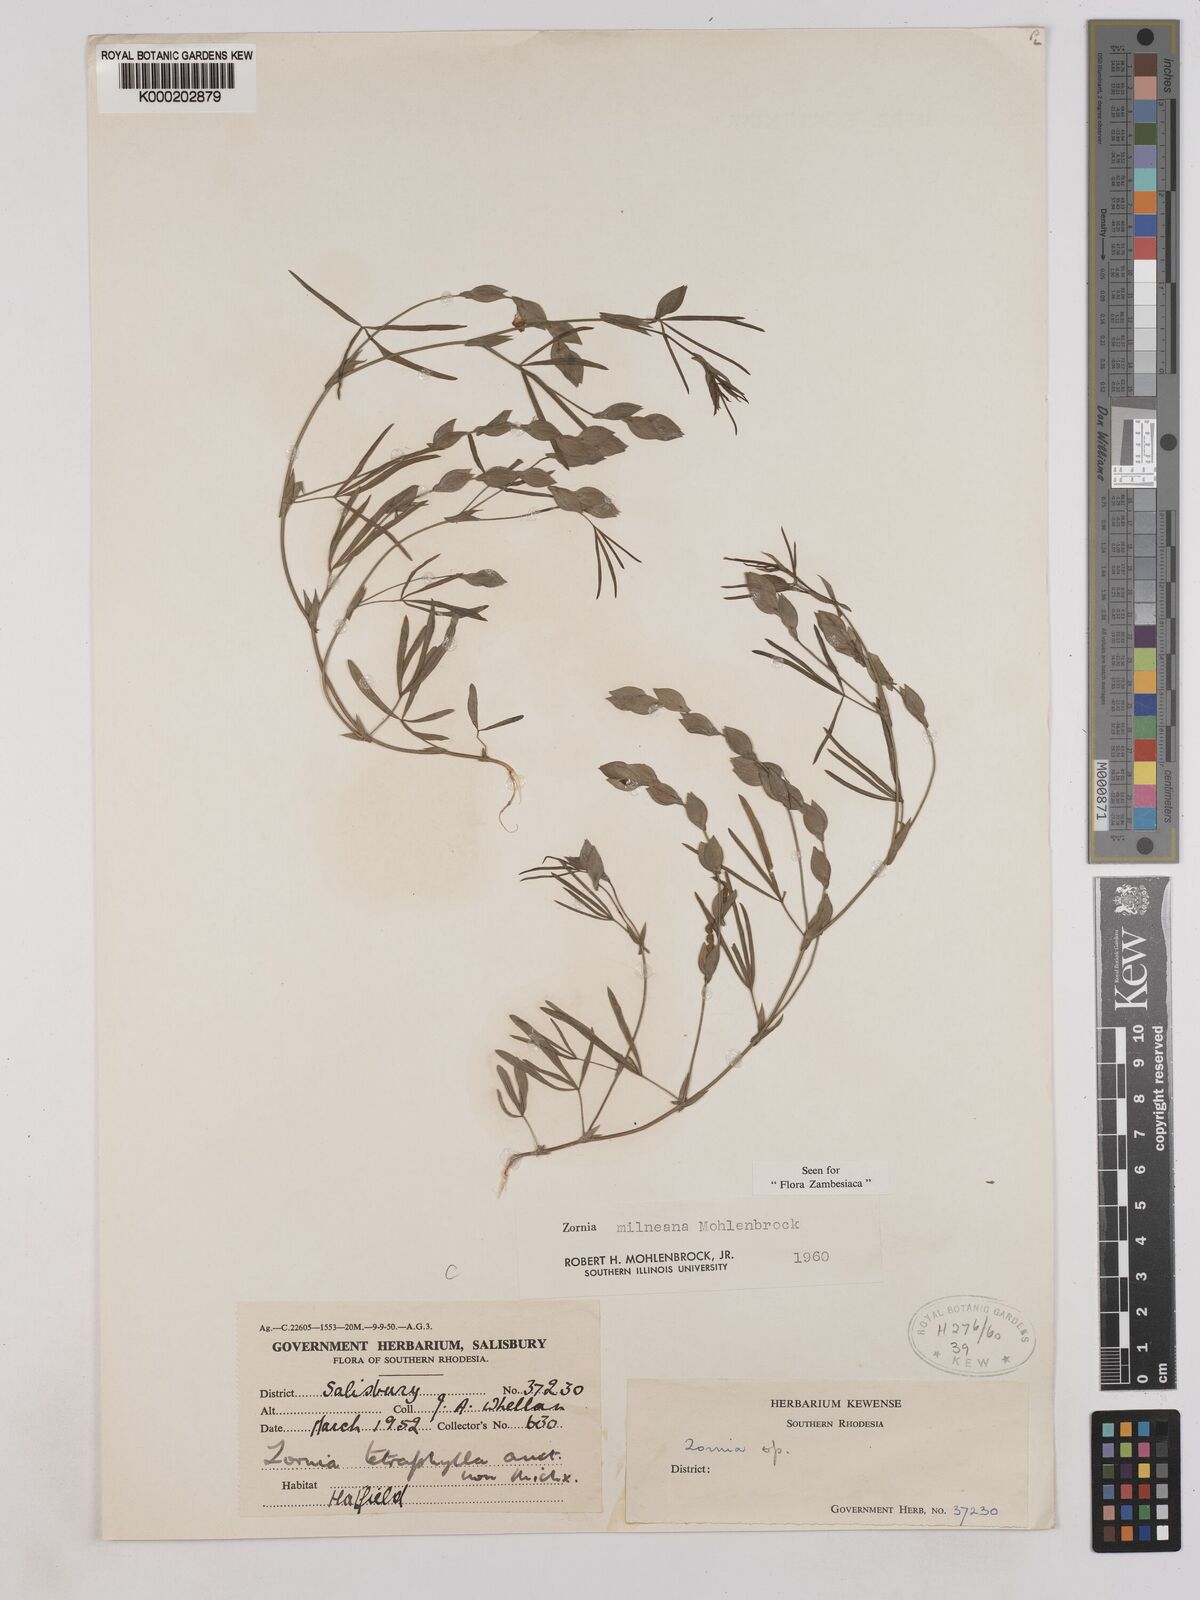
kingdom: Plantae
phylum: Tracheophyta
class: Magnoliopsida
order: Fabales
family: Fabaceae
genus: Zornia
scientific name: Zornia milneana
